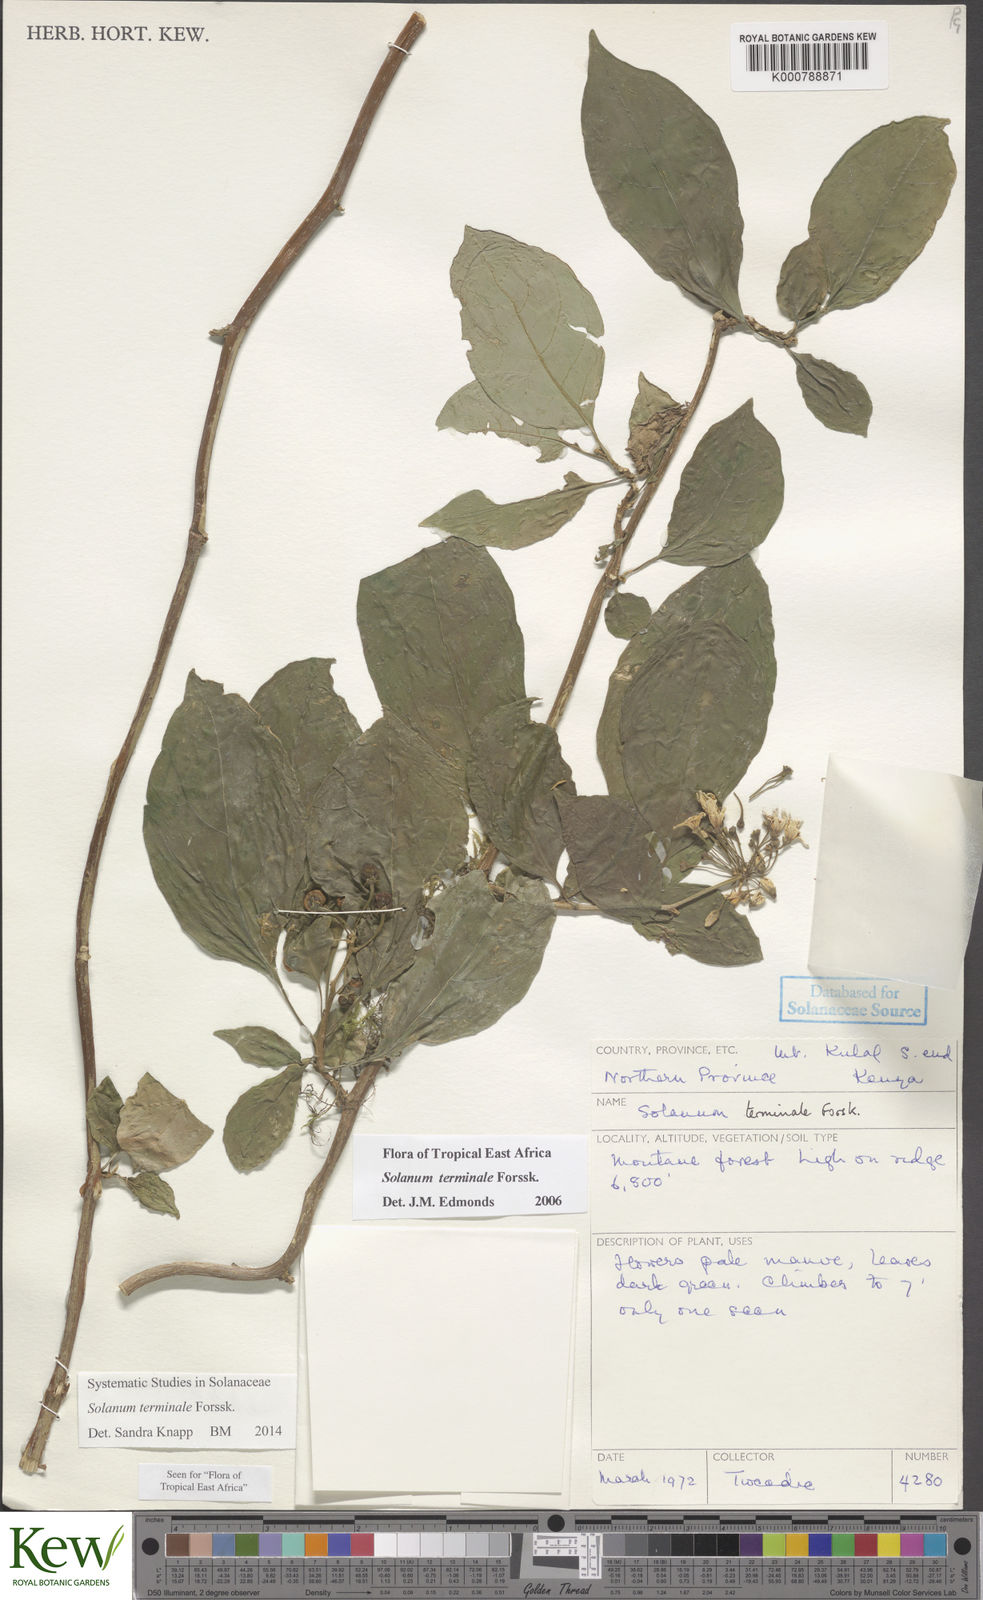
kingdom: Plantae
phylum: Tracheophyta
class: Magnoliopsida
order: Solanales
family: Solanaceae
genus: Solanum
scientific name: Solanum terminale
